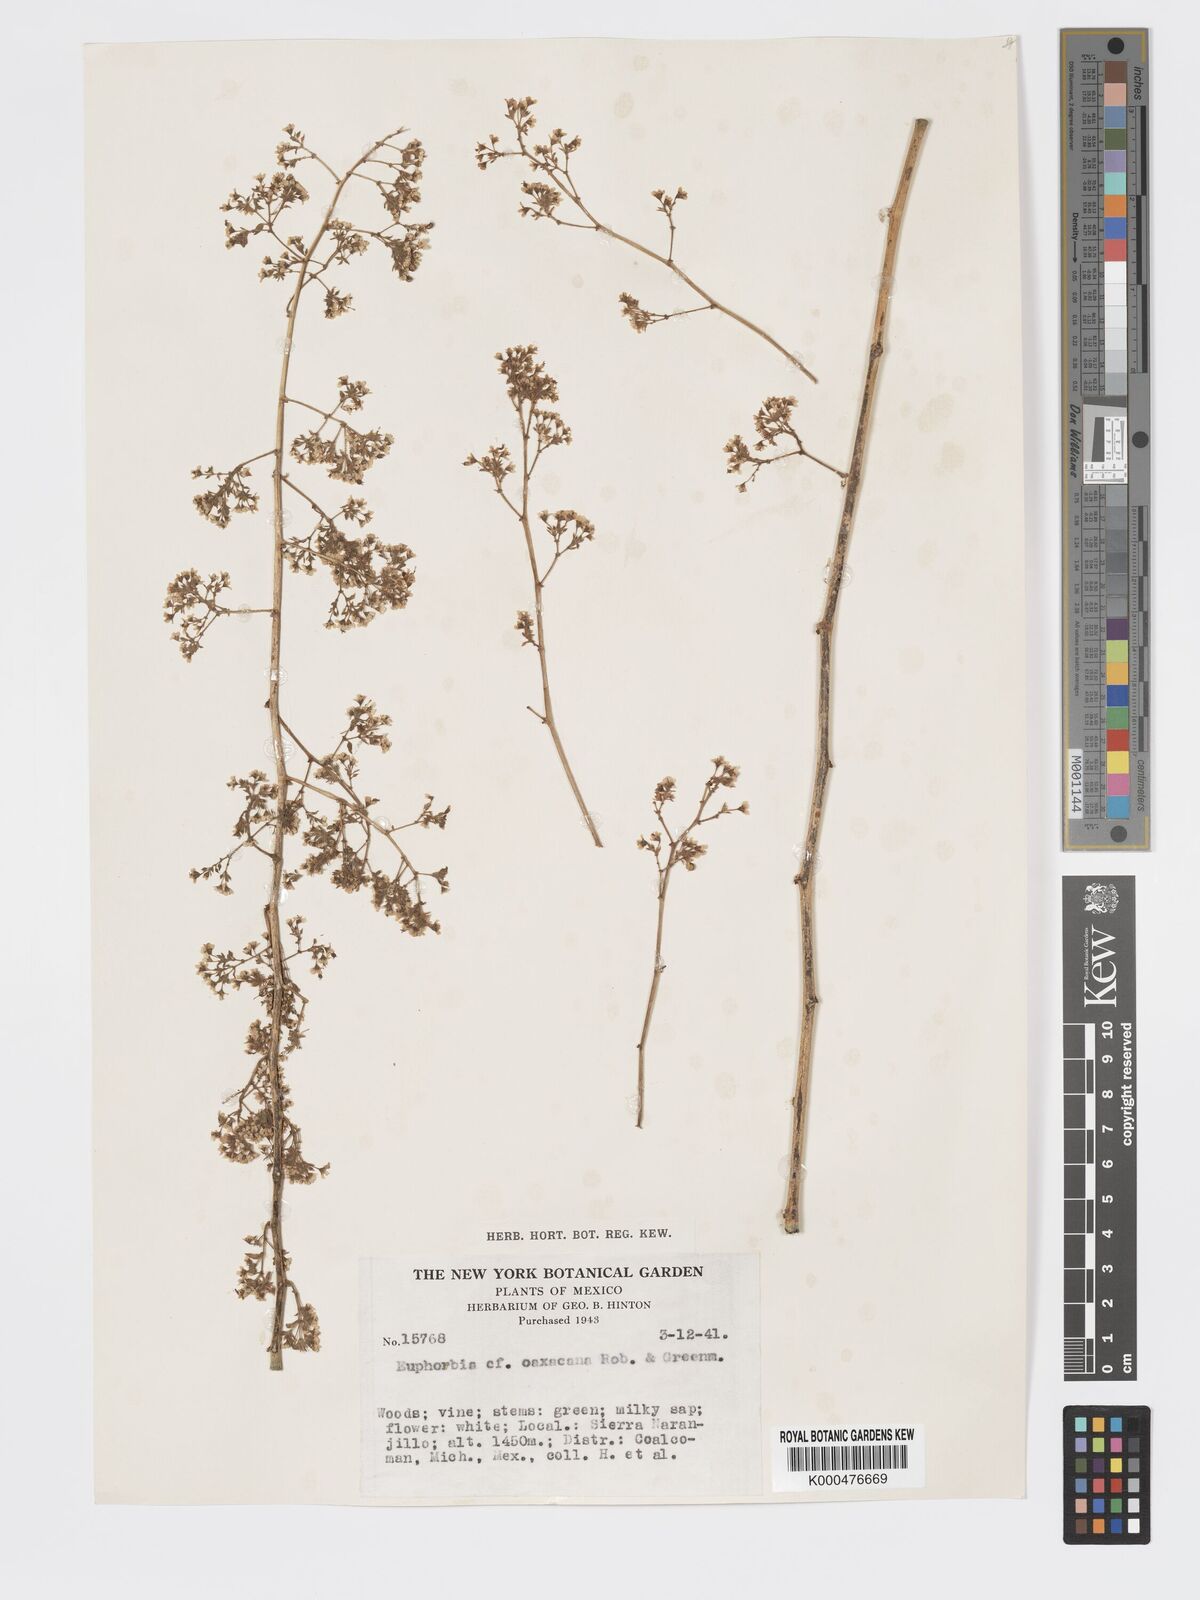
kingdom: Plantae
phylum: Tracheophyta
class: Magnoliopsida
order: Malpighiales
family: Euphorbiaceae
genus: Euphorbia
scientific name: Euphorbia oaxacana
